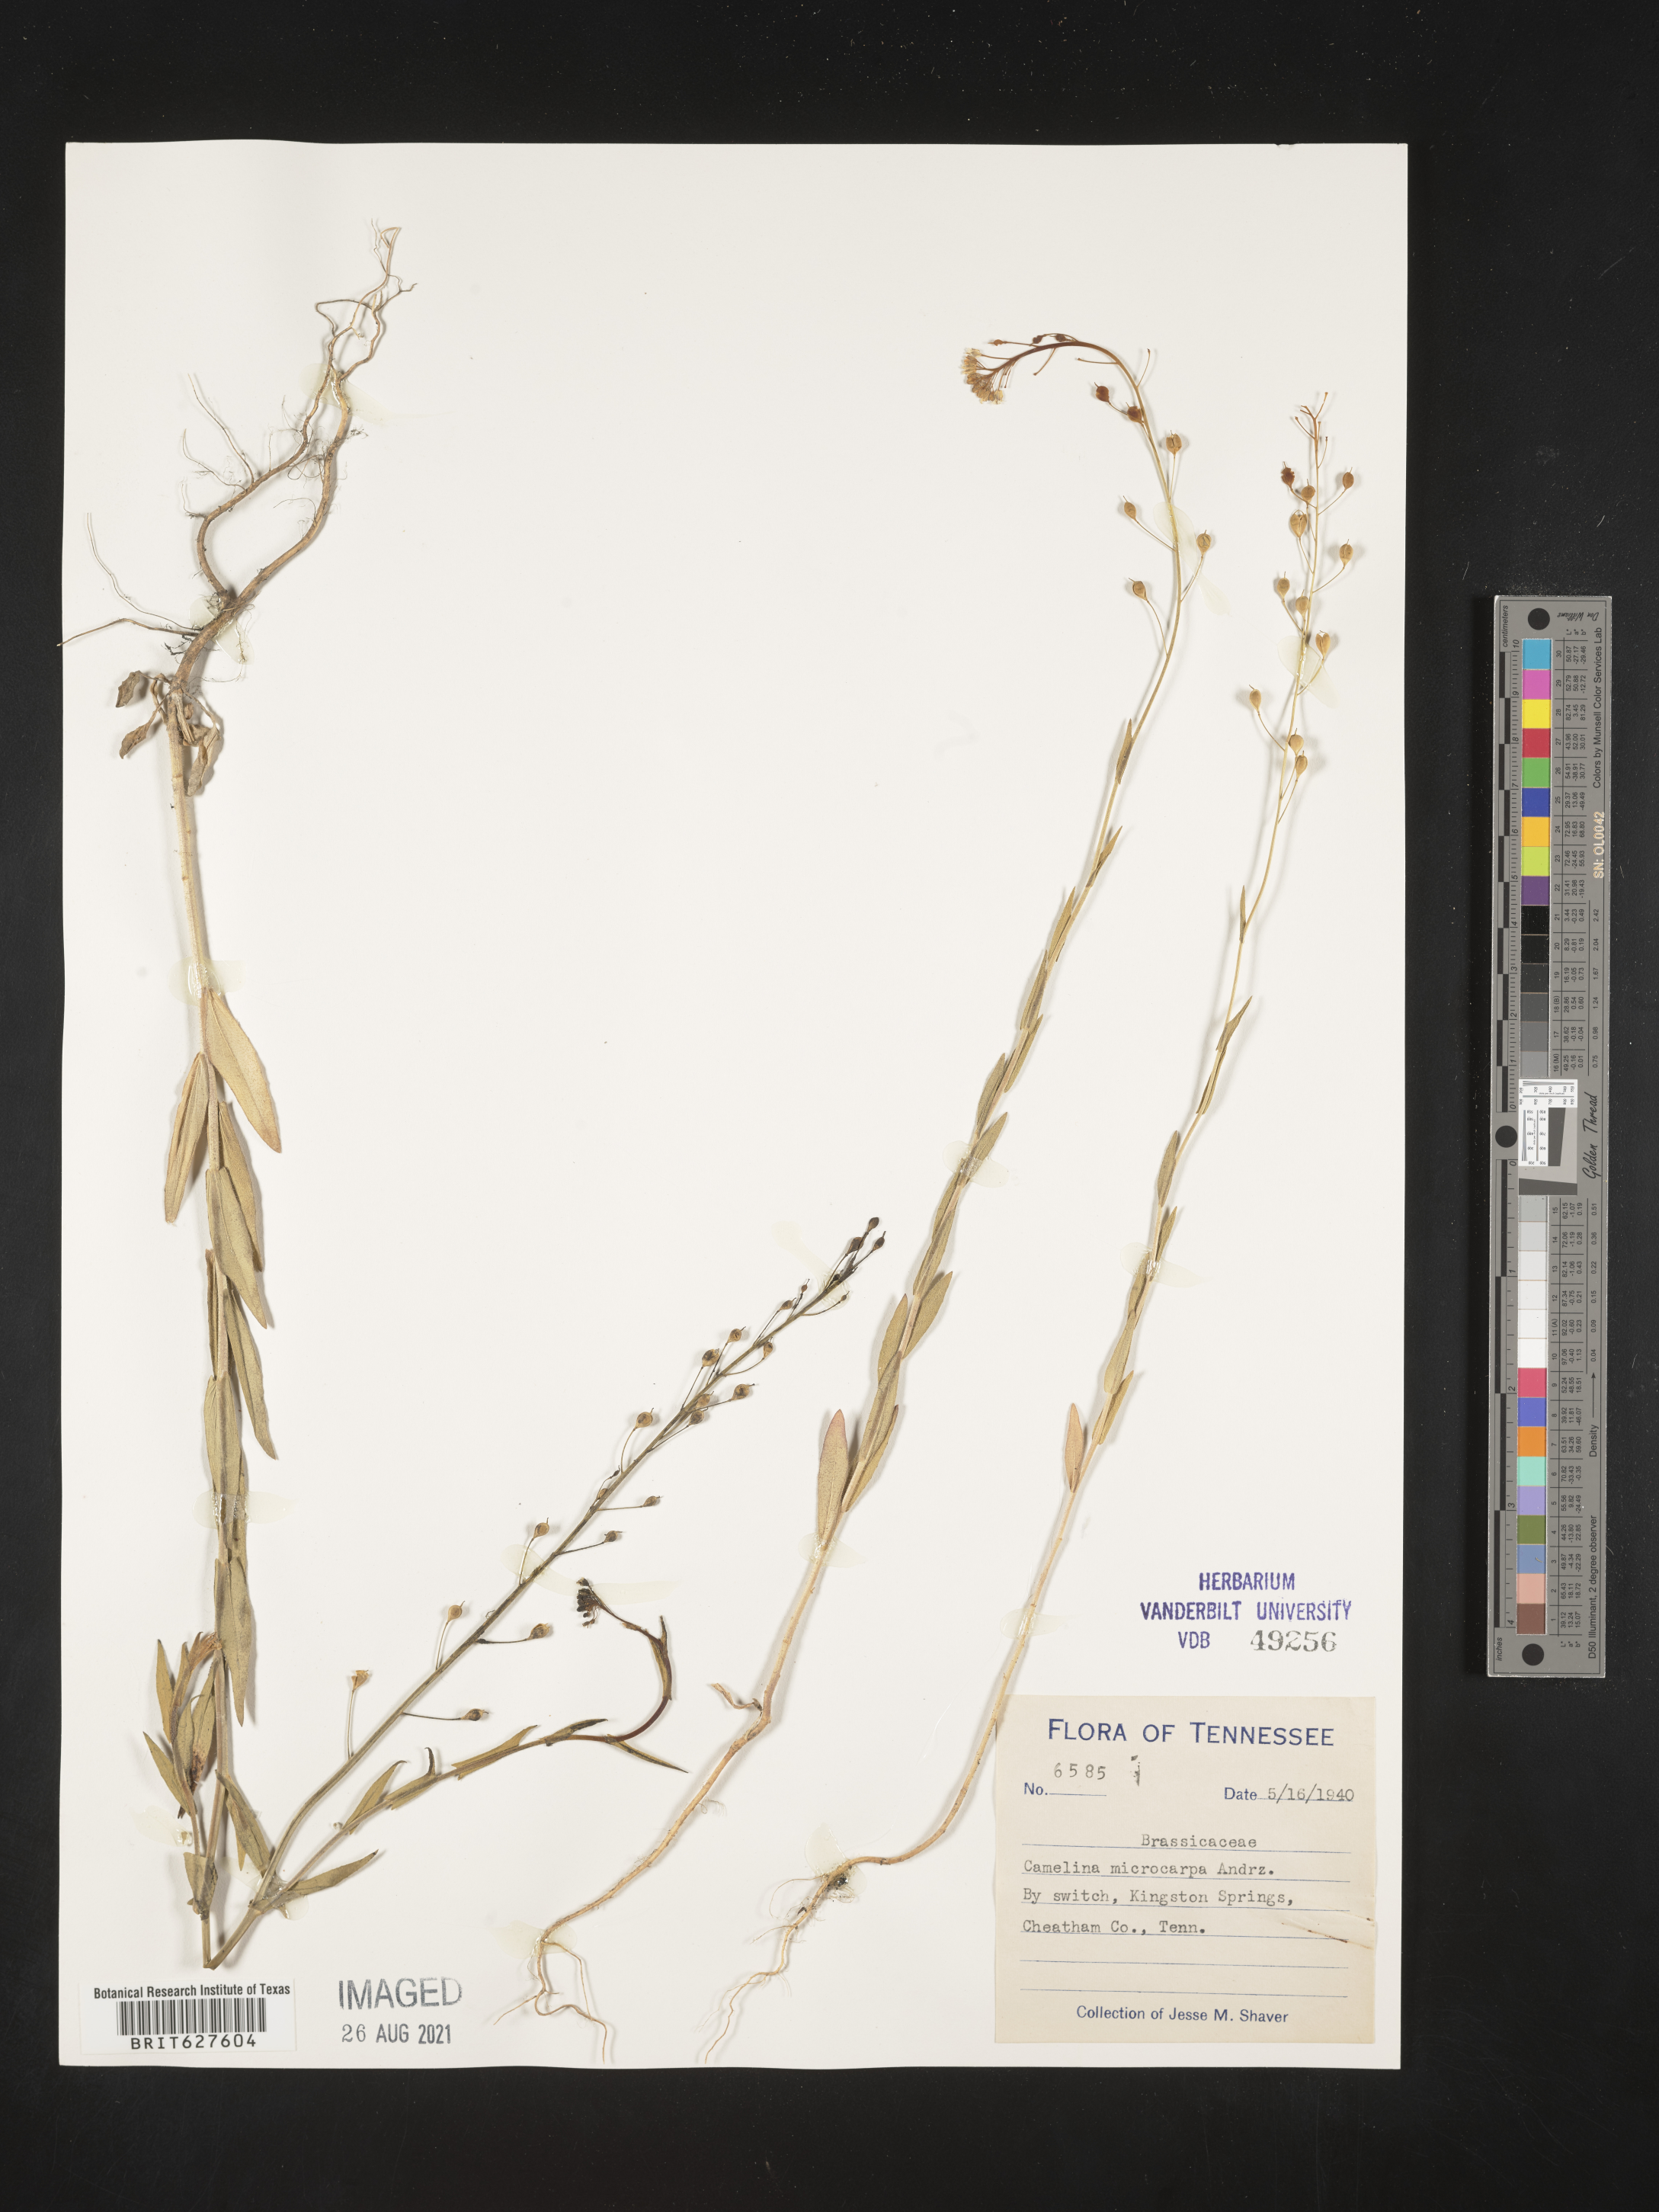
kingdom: Plantae
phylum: Tracheophyta
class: Magnoliopsida
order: Brassicales
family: Brassicaceae
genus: Camelina
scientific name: Camelina
